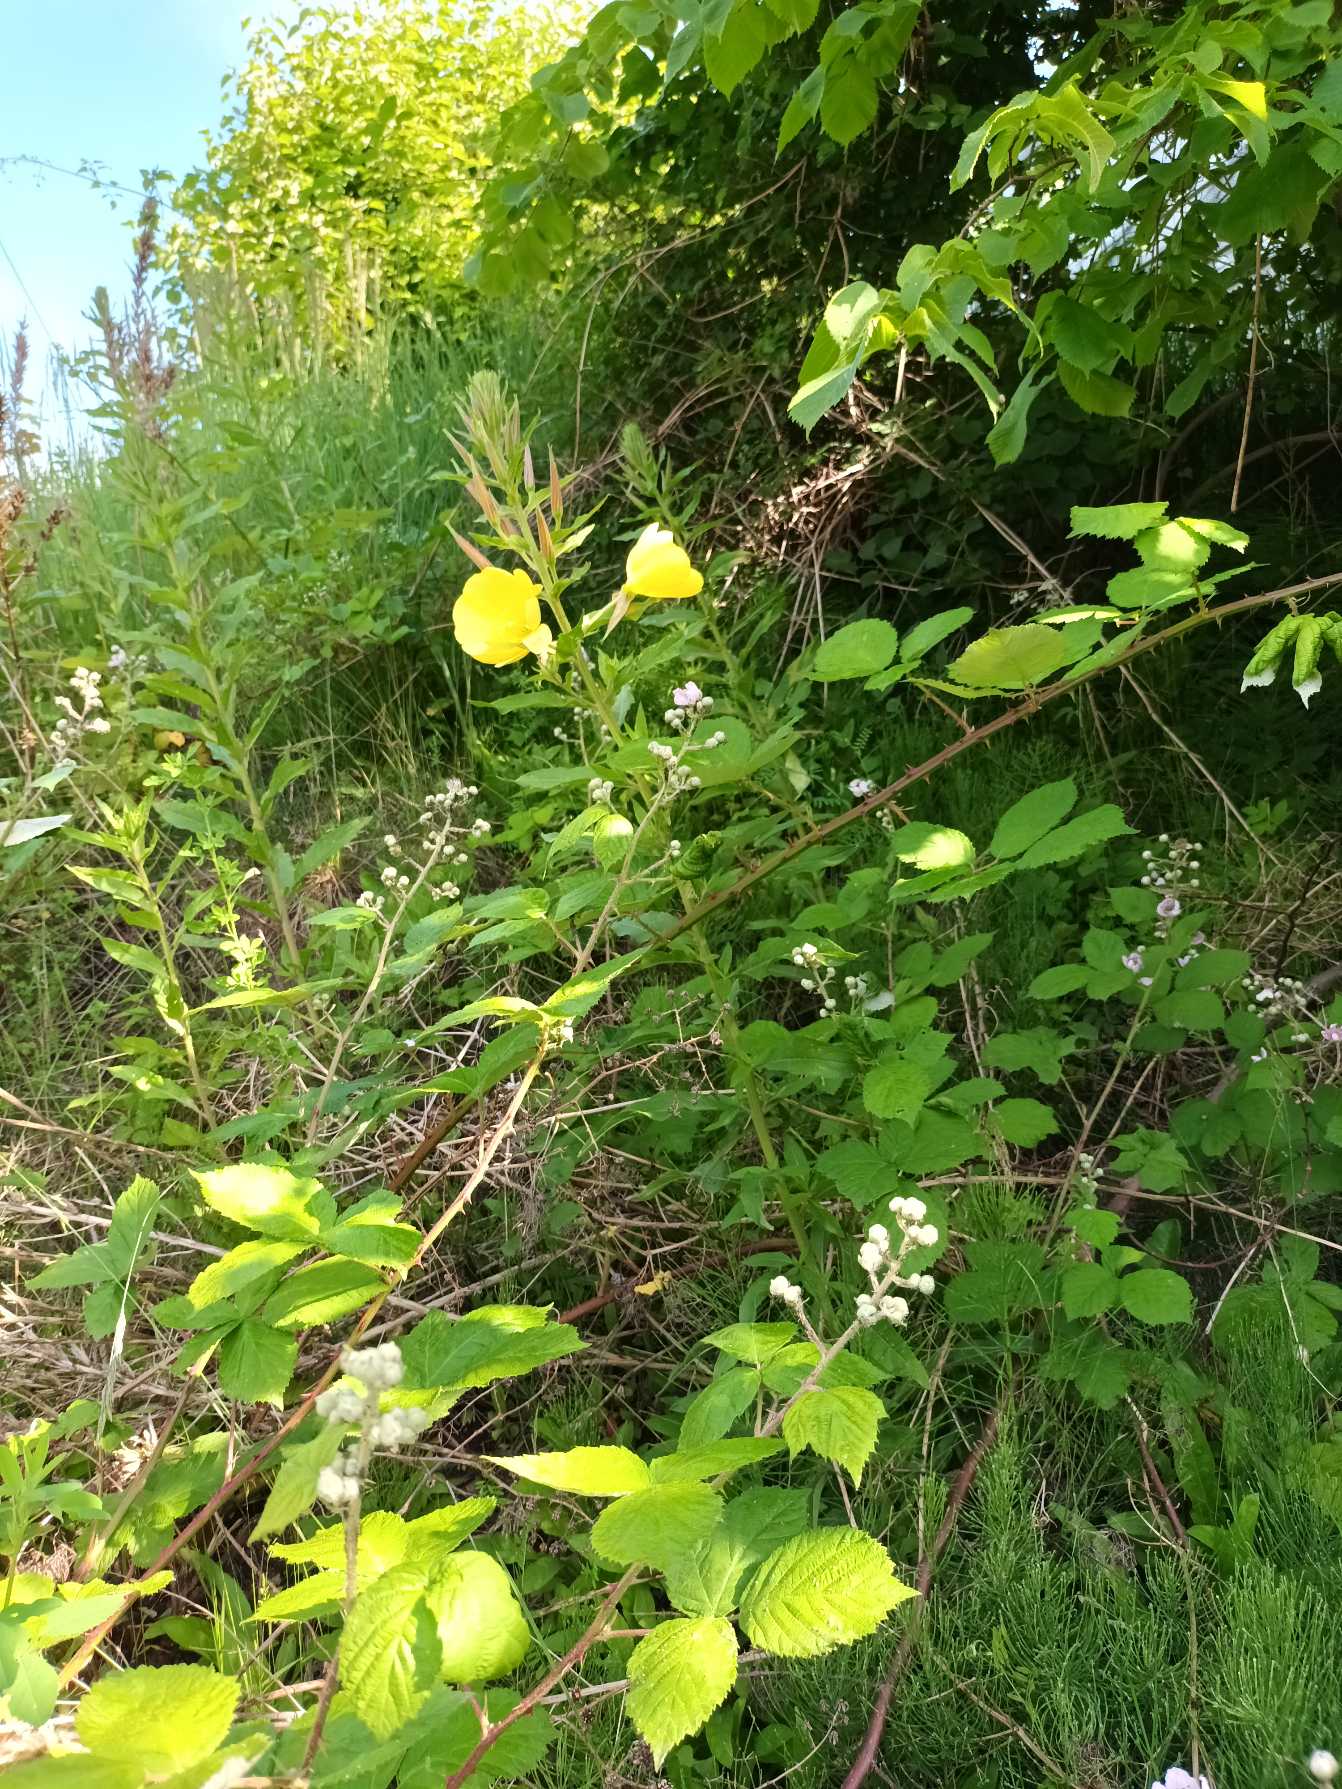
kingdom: Plantae
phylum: Tracheophyta
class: Magnoliopsida
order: Myrtales
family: Onagraceae
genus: Oenothera
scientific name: Oenothera glazioviana
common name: Kæmpe-natlys
